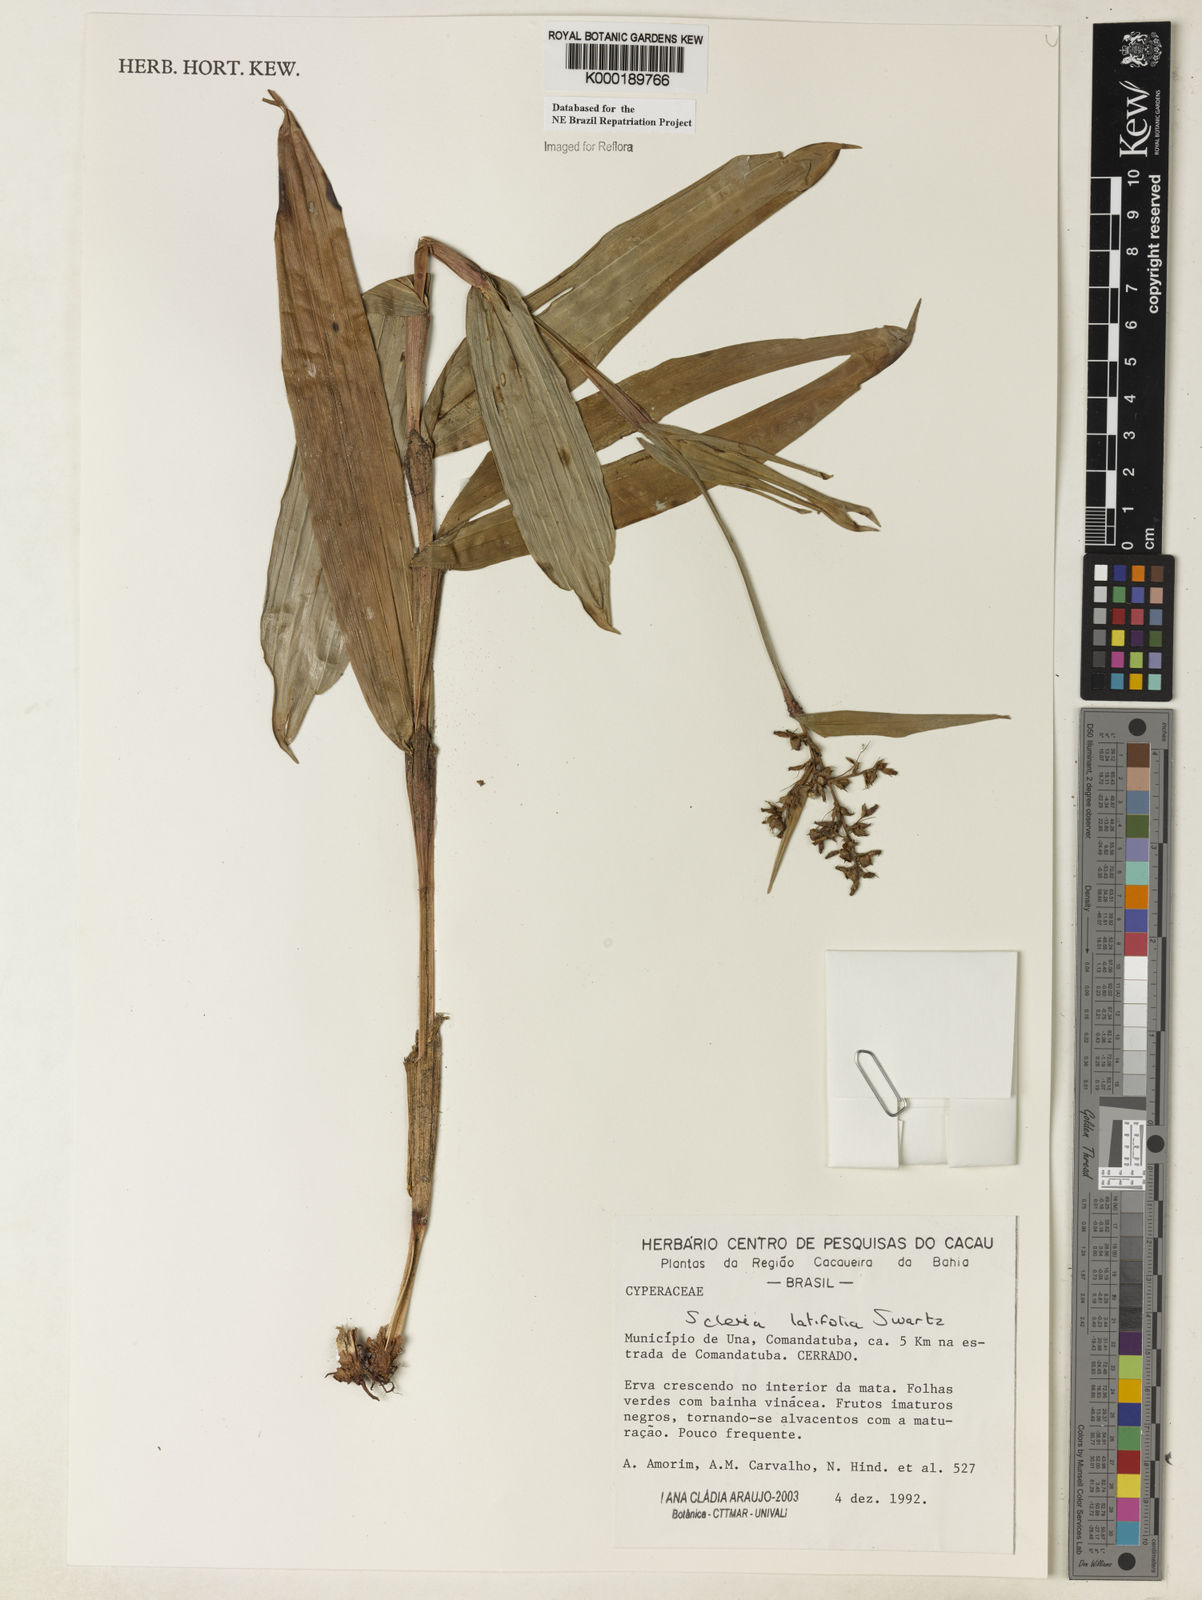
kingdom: Plantae
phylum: Tracheophyta
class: Liliopsida
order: Poales
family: Cyperaceae
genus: Scleria
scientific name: Scleria latifolia
